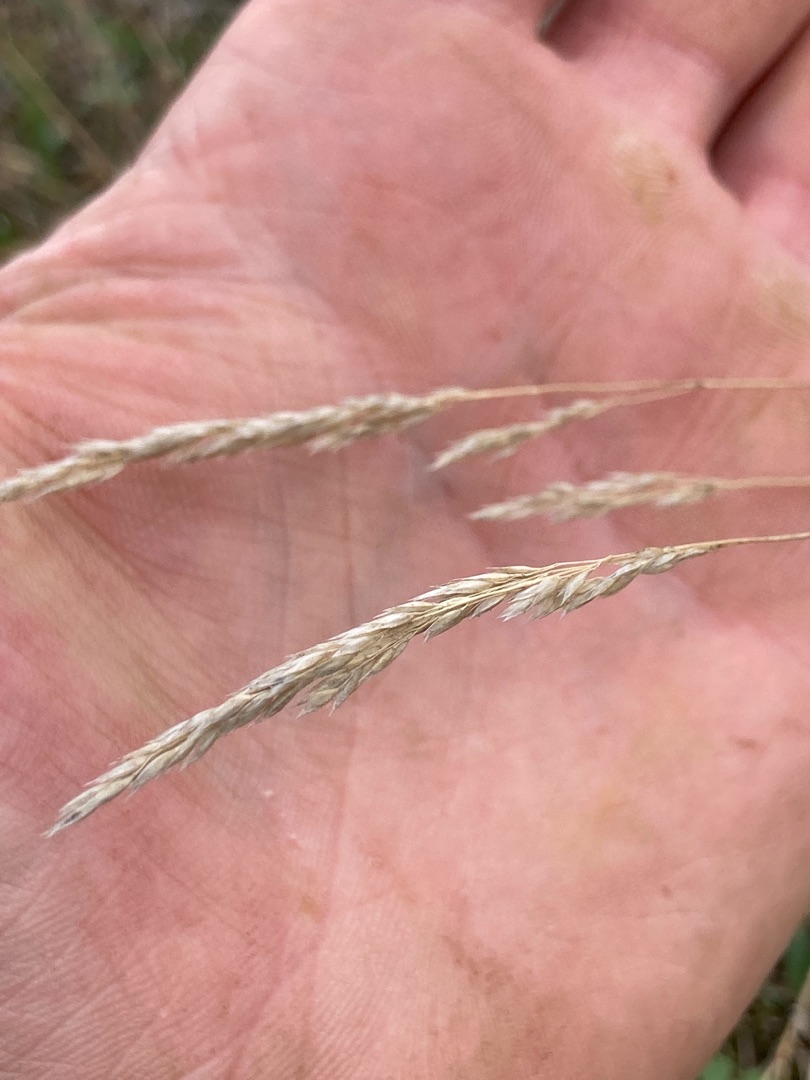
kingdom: Plantae
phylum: Tracheophyta
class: Liliopsida
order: Poales
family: Poaceae
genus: Corynephorus
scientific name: Corynephorus canescens
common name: Sandskæg
